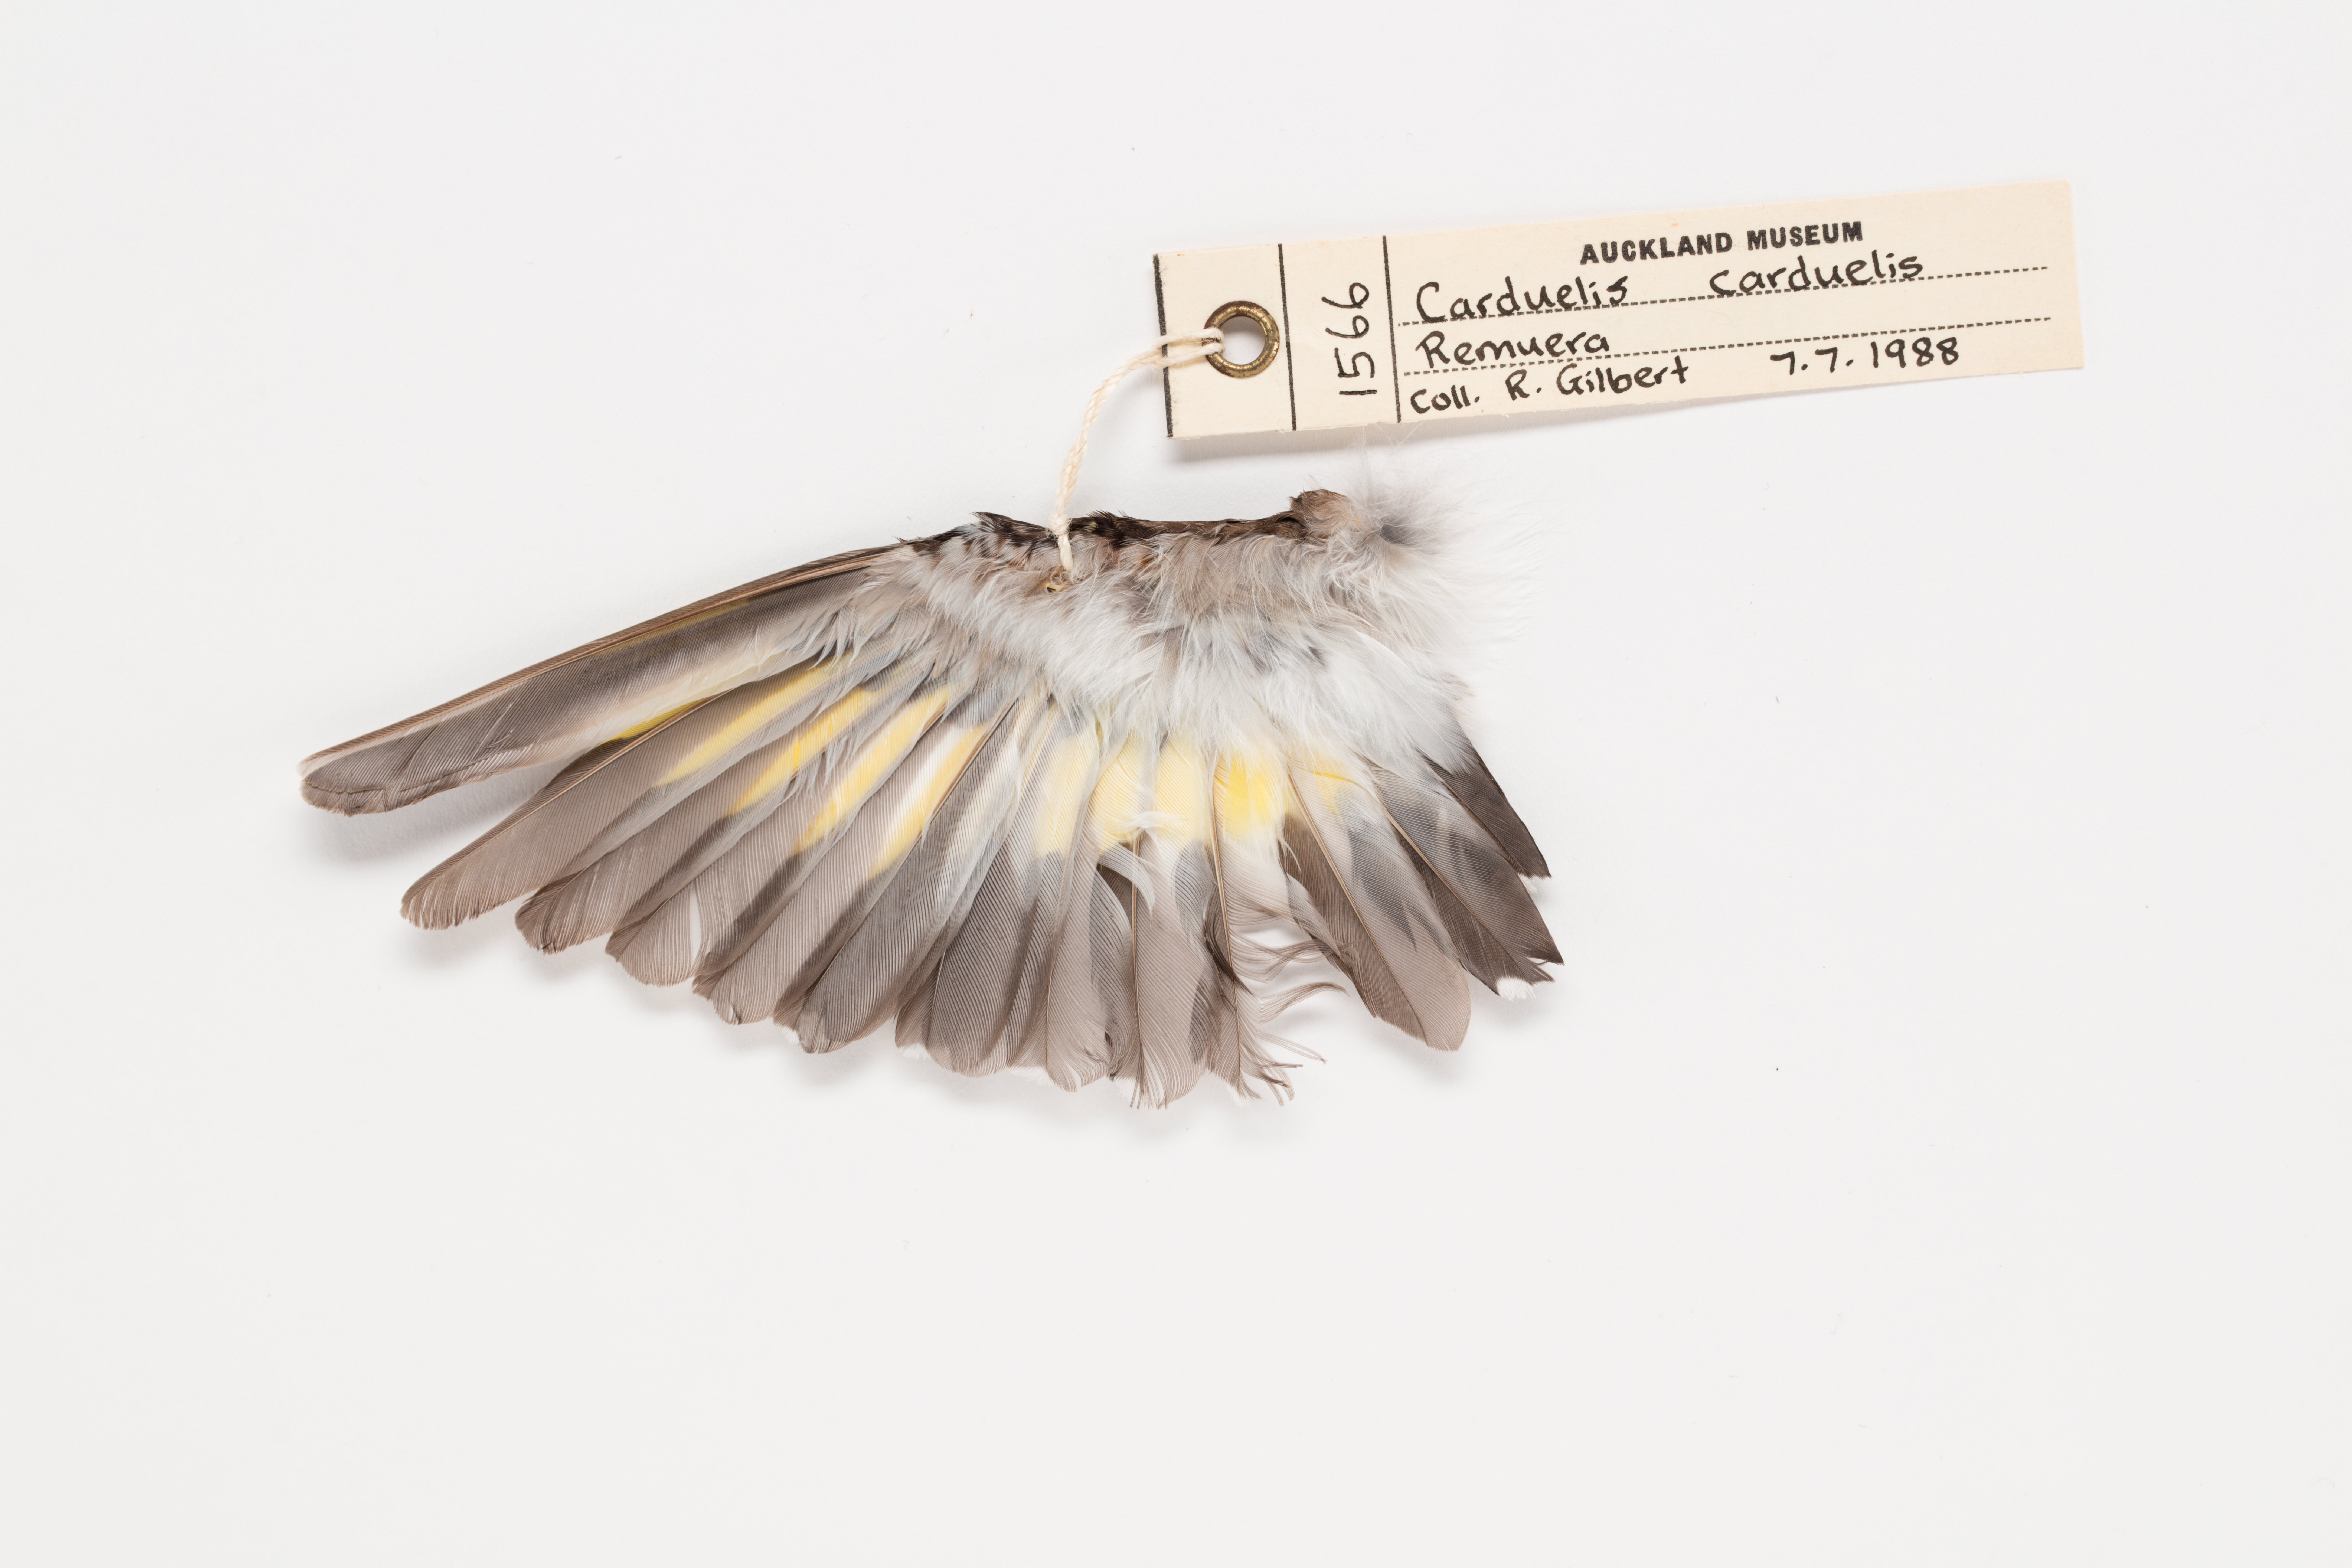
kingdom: Animalia
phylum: Chordata
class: Aves
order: Passeriformes
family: Fringillidae
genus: Carduelis
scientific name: Carduelis carduelis
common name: European goldfinch
